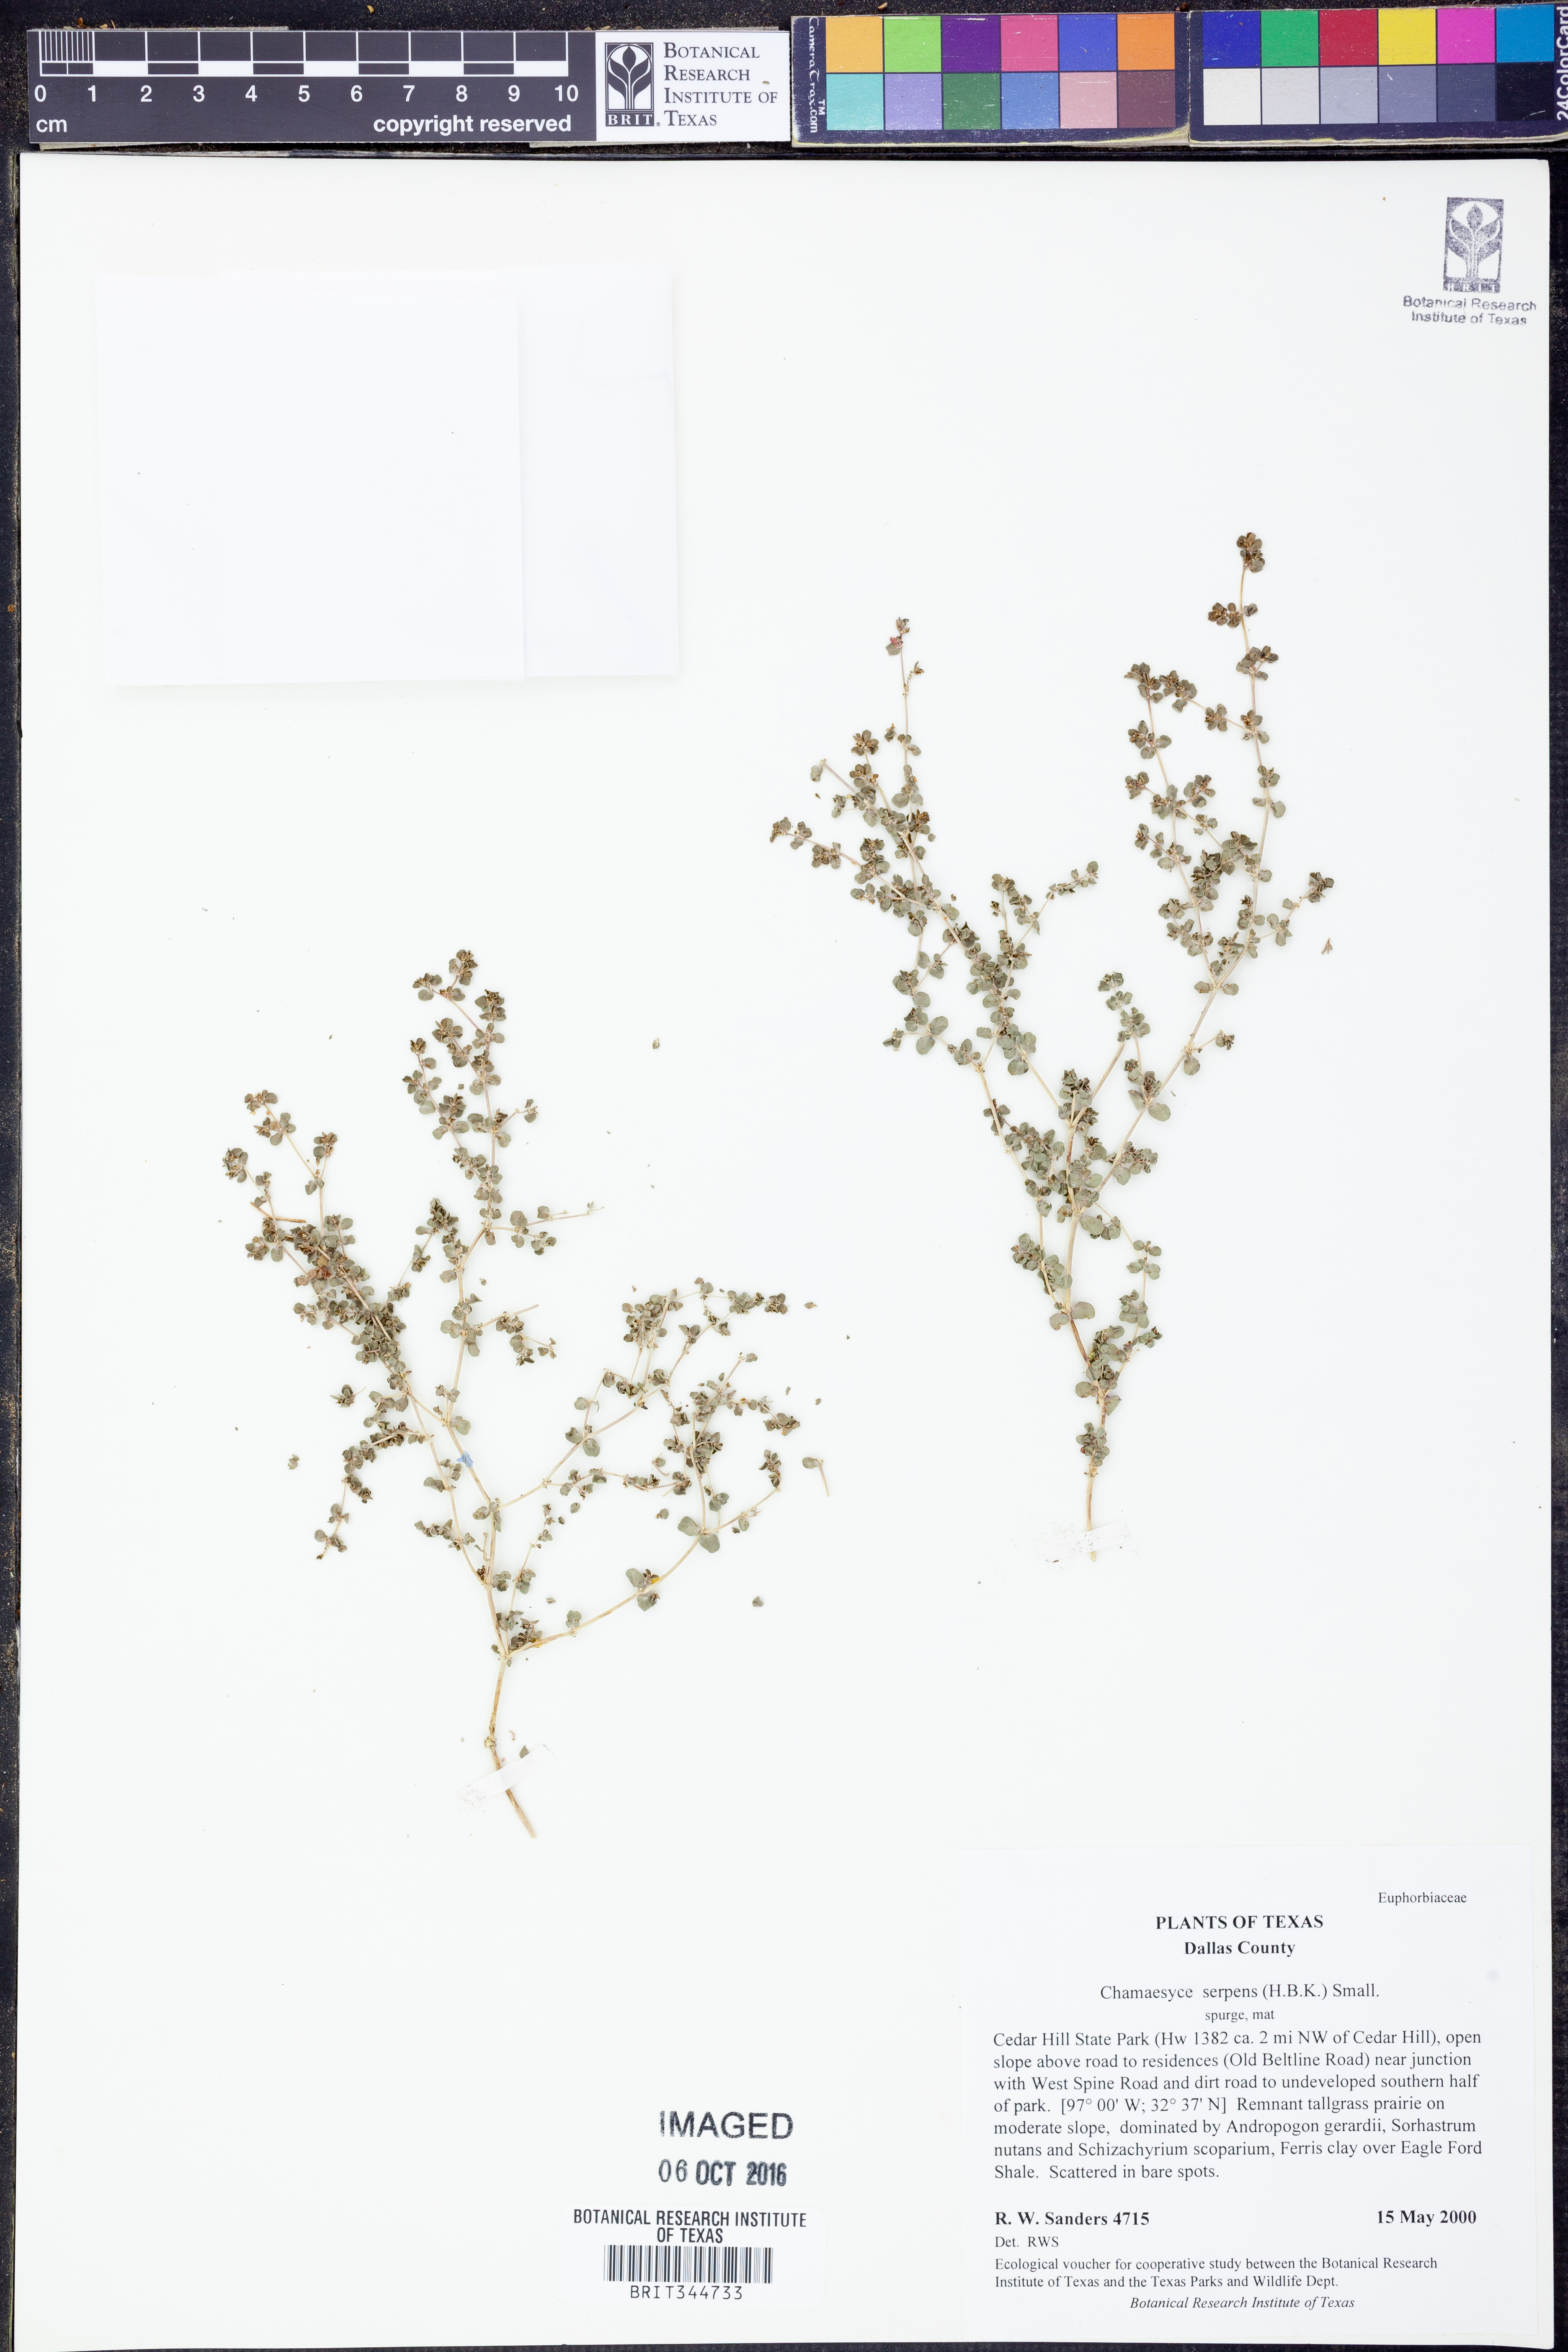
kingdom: Plantae
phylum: Tracheophyta
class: Magnoliopsida
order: Malpighiales
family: Euphorbiaceae
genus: Euphorbia
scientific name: Euphorbia serpens
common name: Matted sandmat
